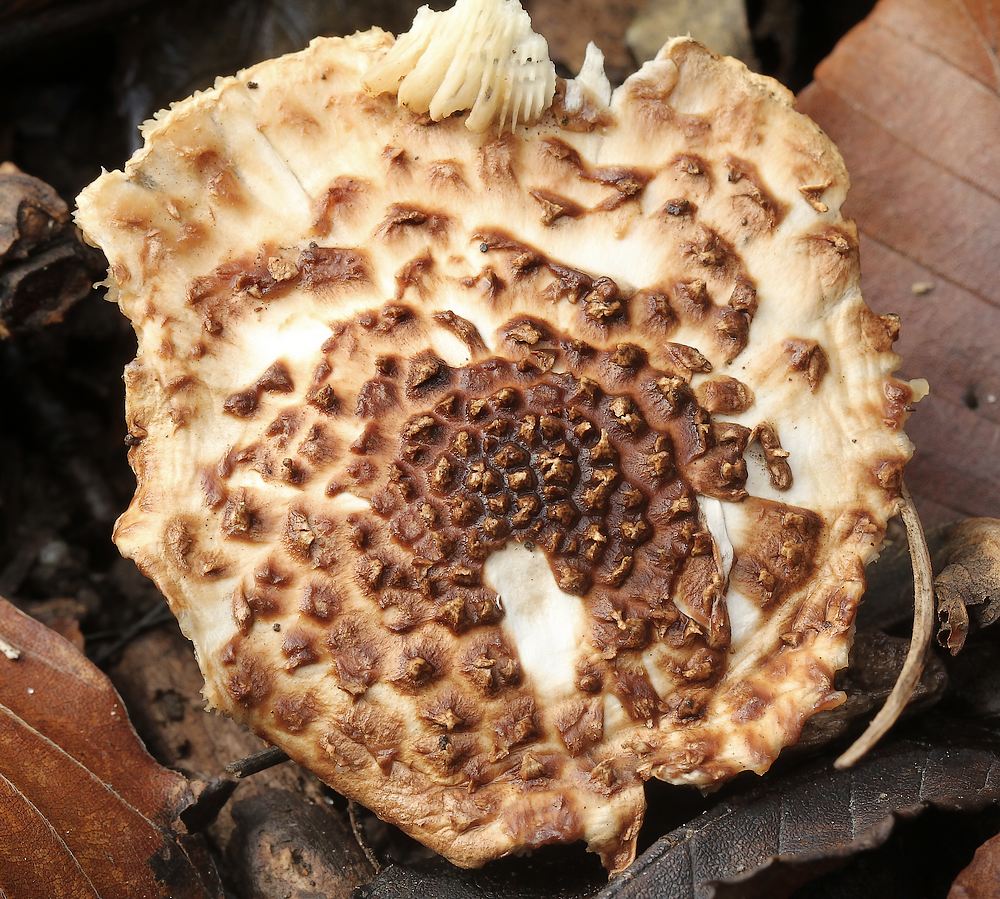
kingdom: Fungi
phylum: Basidiomycota
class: Agaricomycetes
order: Agaricales
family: Agaricaceae
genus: Echinoderma
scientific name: Echinoderma
